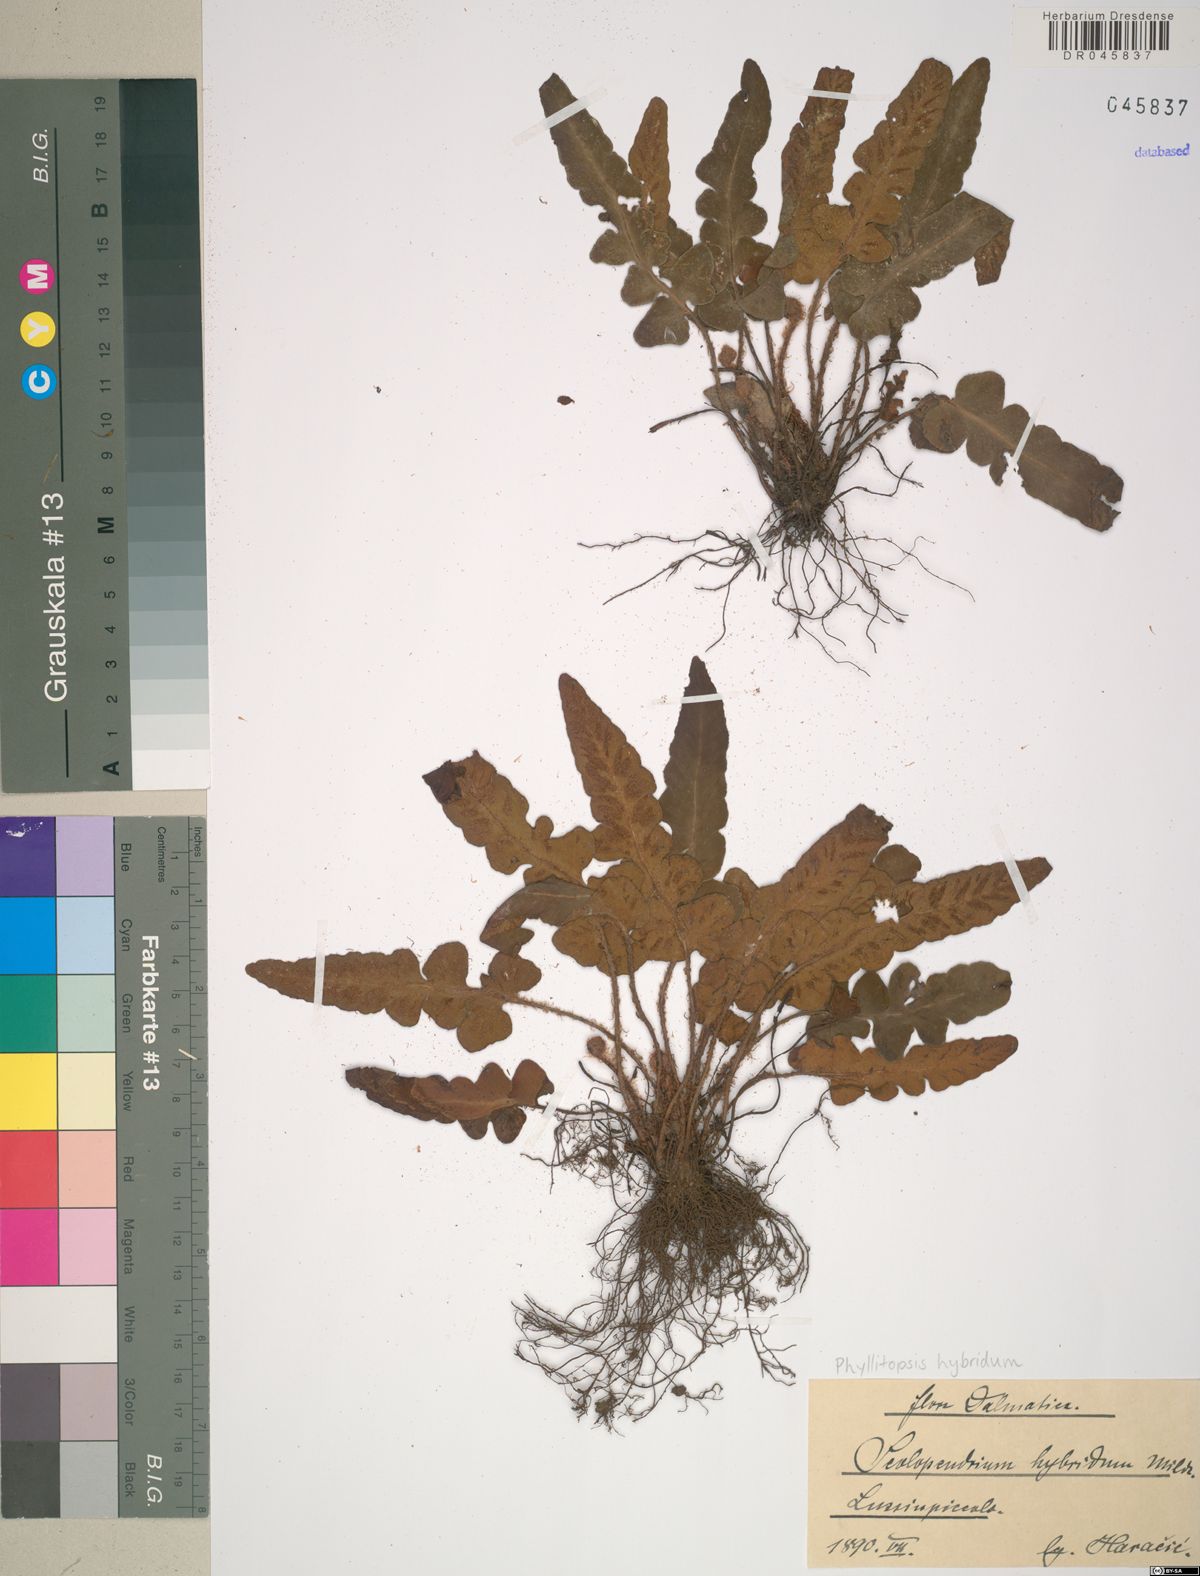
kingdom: Plantae
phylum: Tracheophyta
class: Polypodiopsida
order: Polypodiales
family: Aspleniaceae
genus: Asplenium
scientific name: Asplenium hybridum
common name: Dalmatian spleenwort
